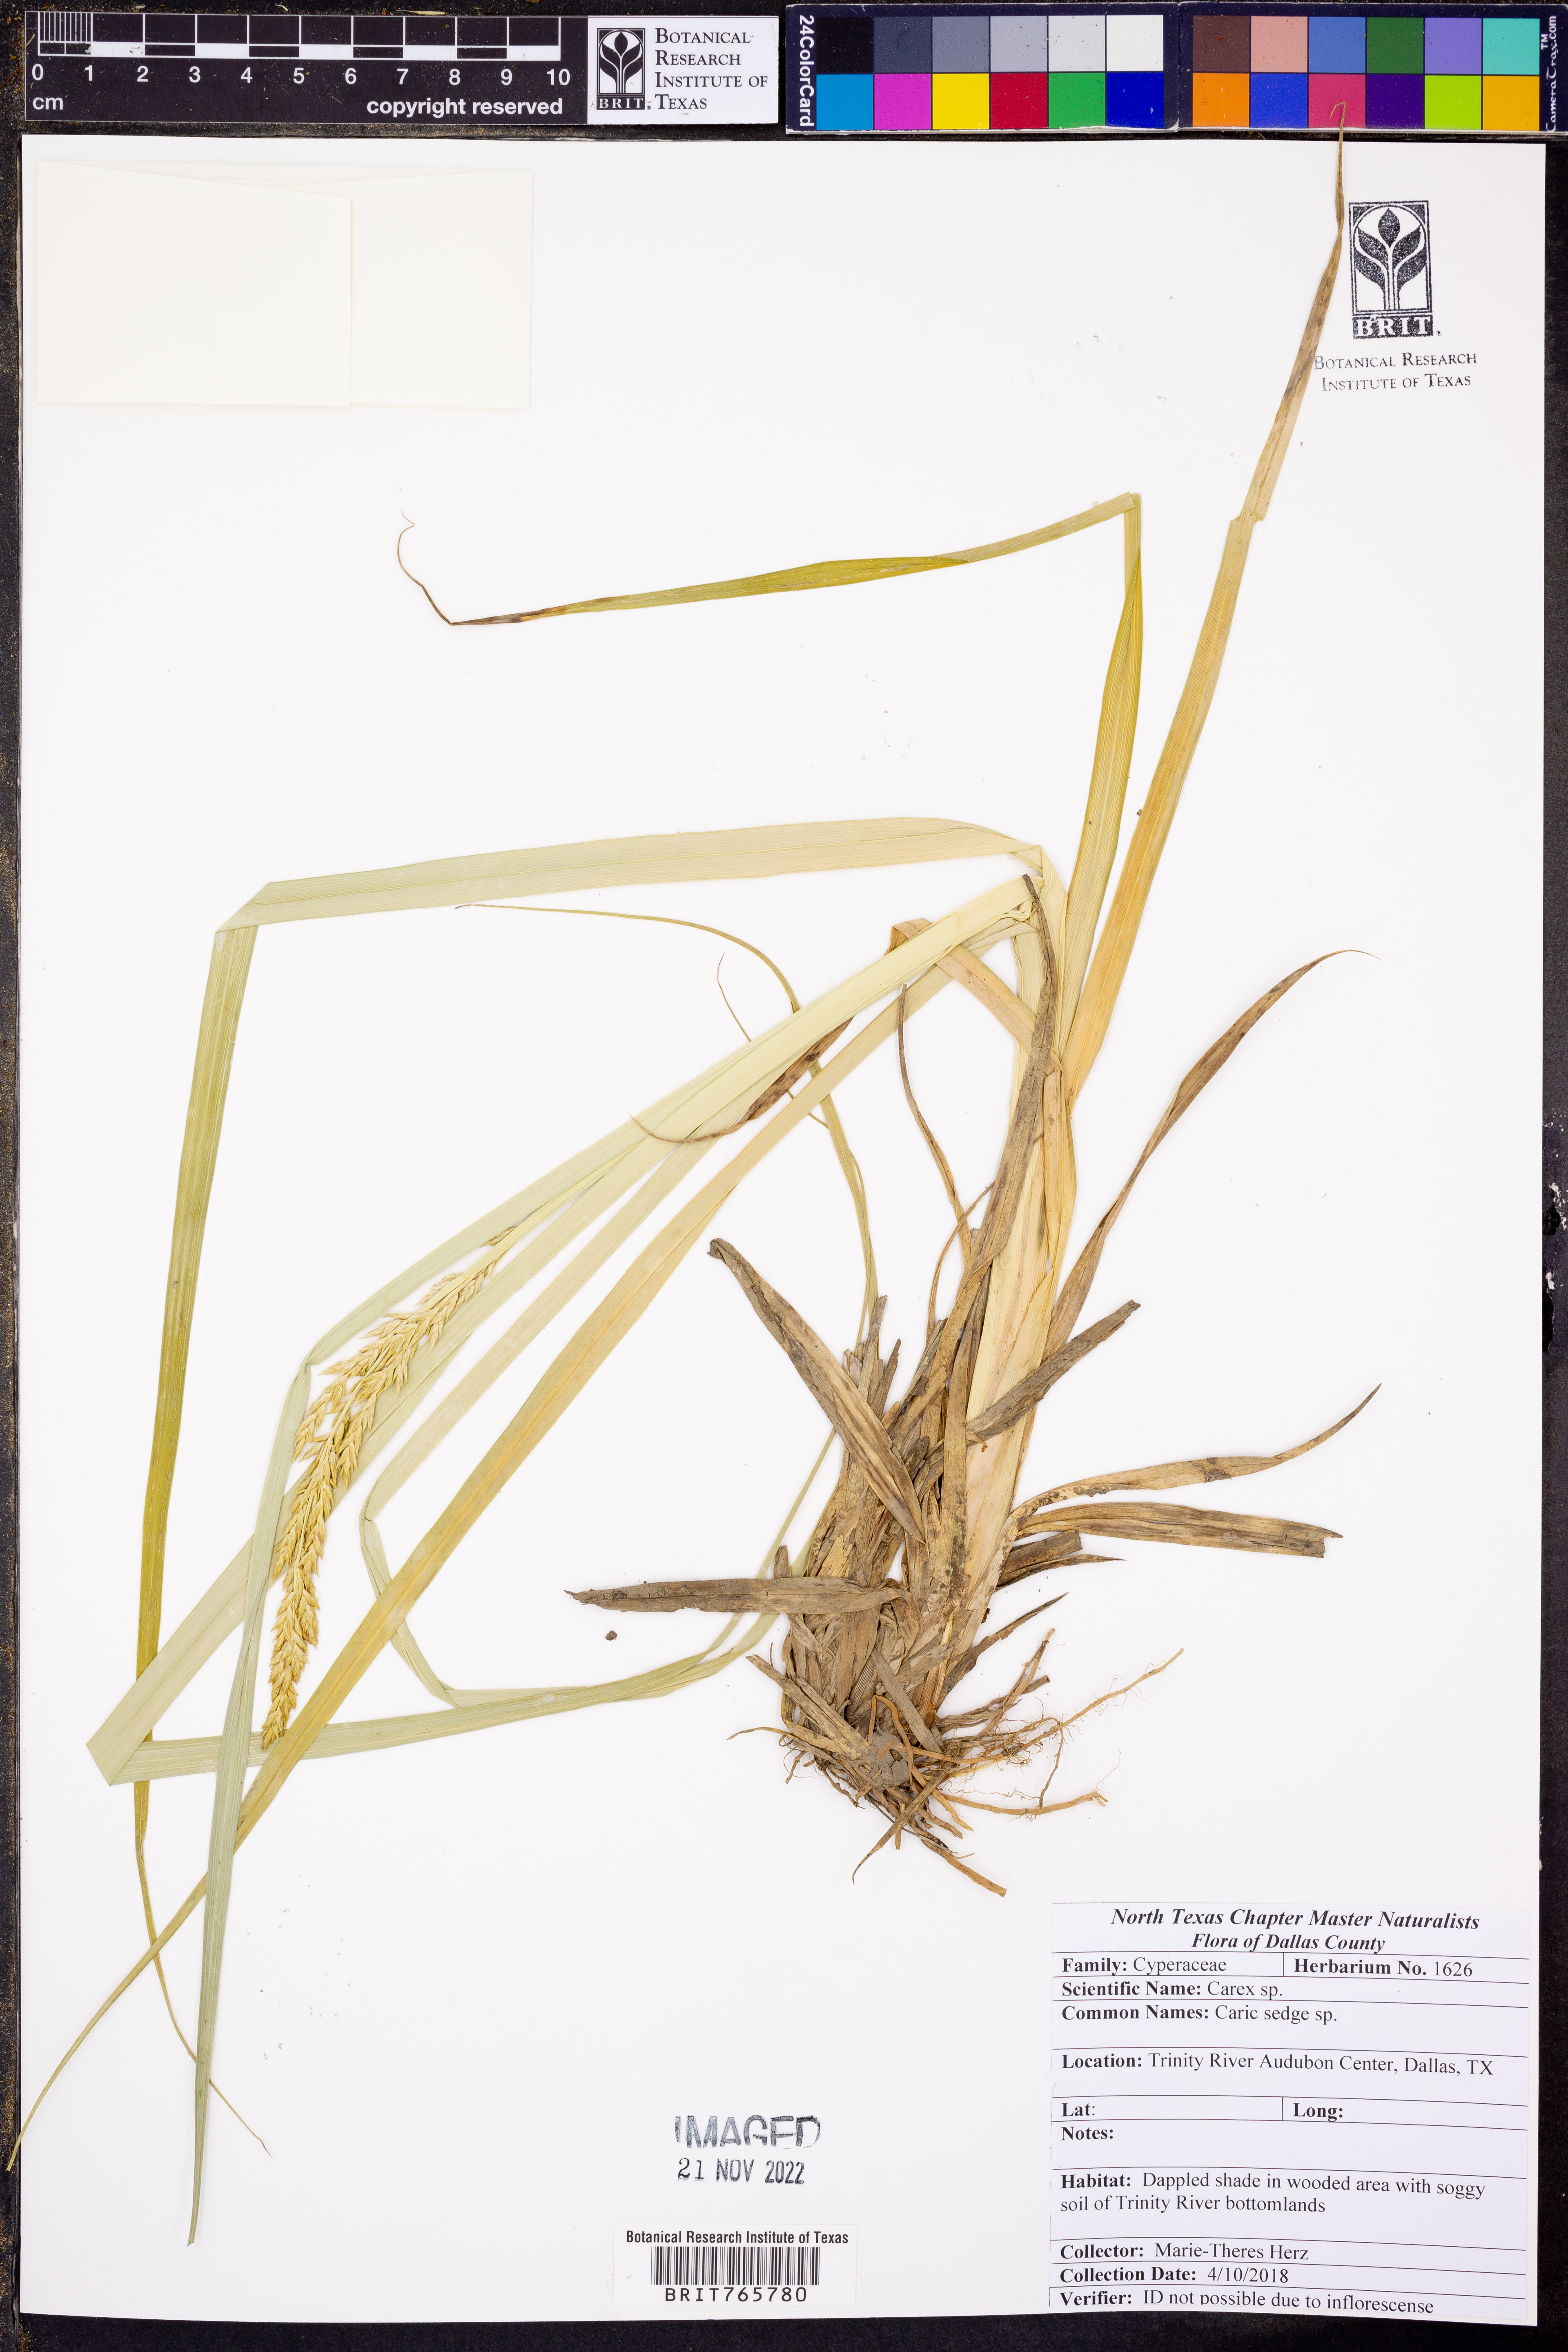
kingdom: Plantae
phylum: Tracheophyta
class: Liliopsida
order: Poales
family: Cyperaceae
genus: Carex
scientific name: Carex
